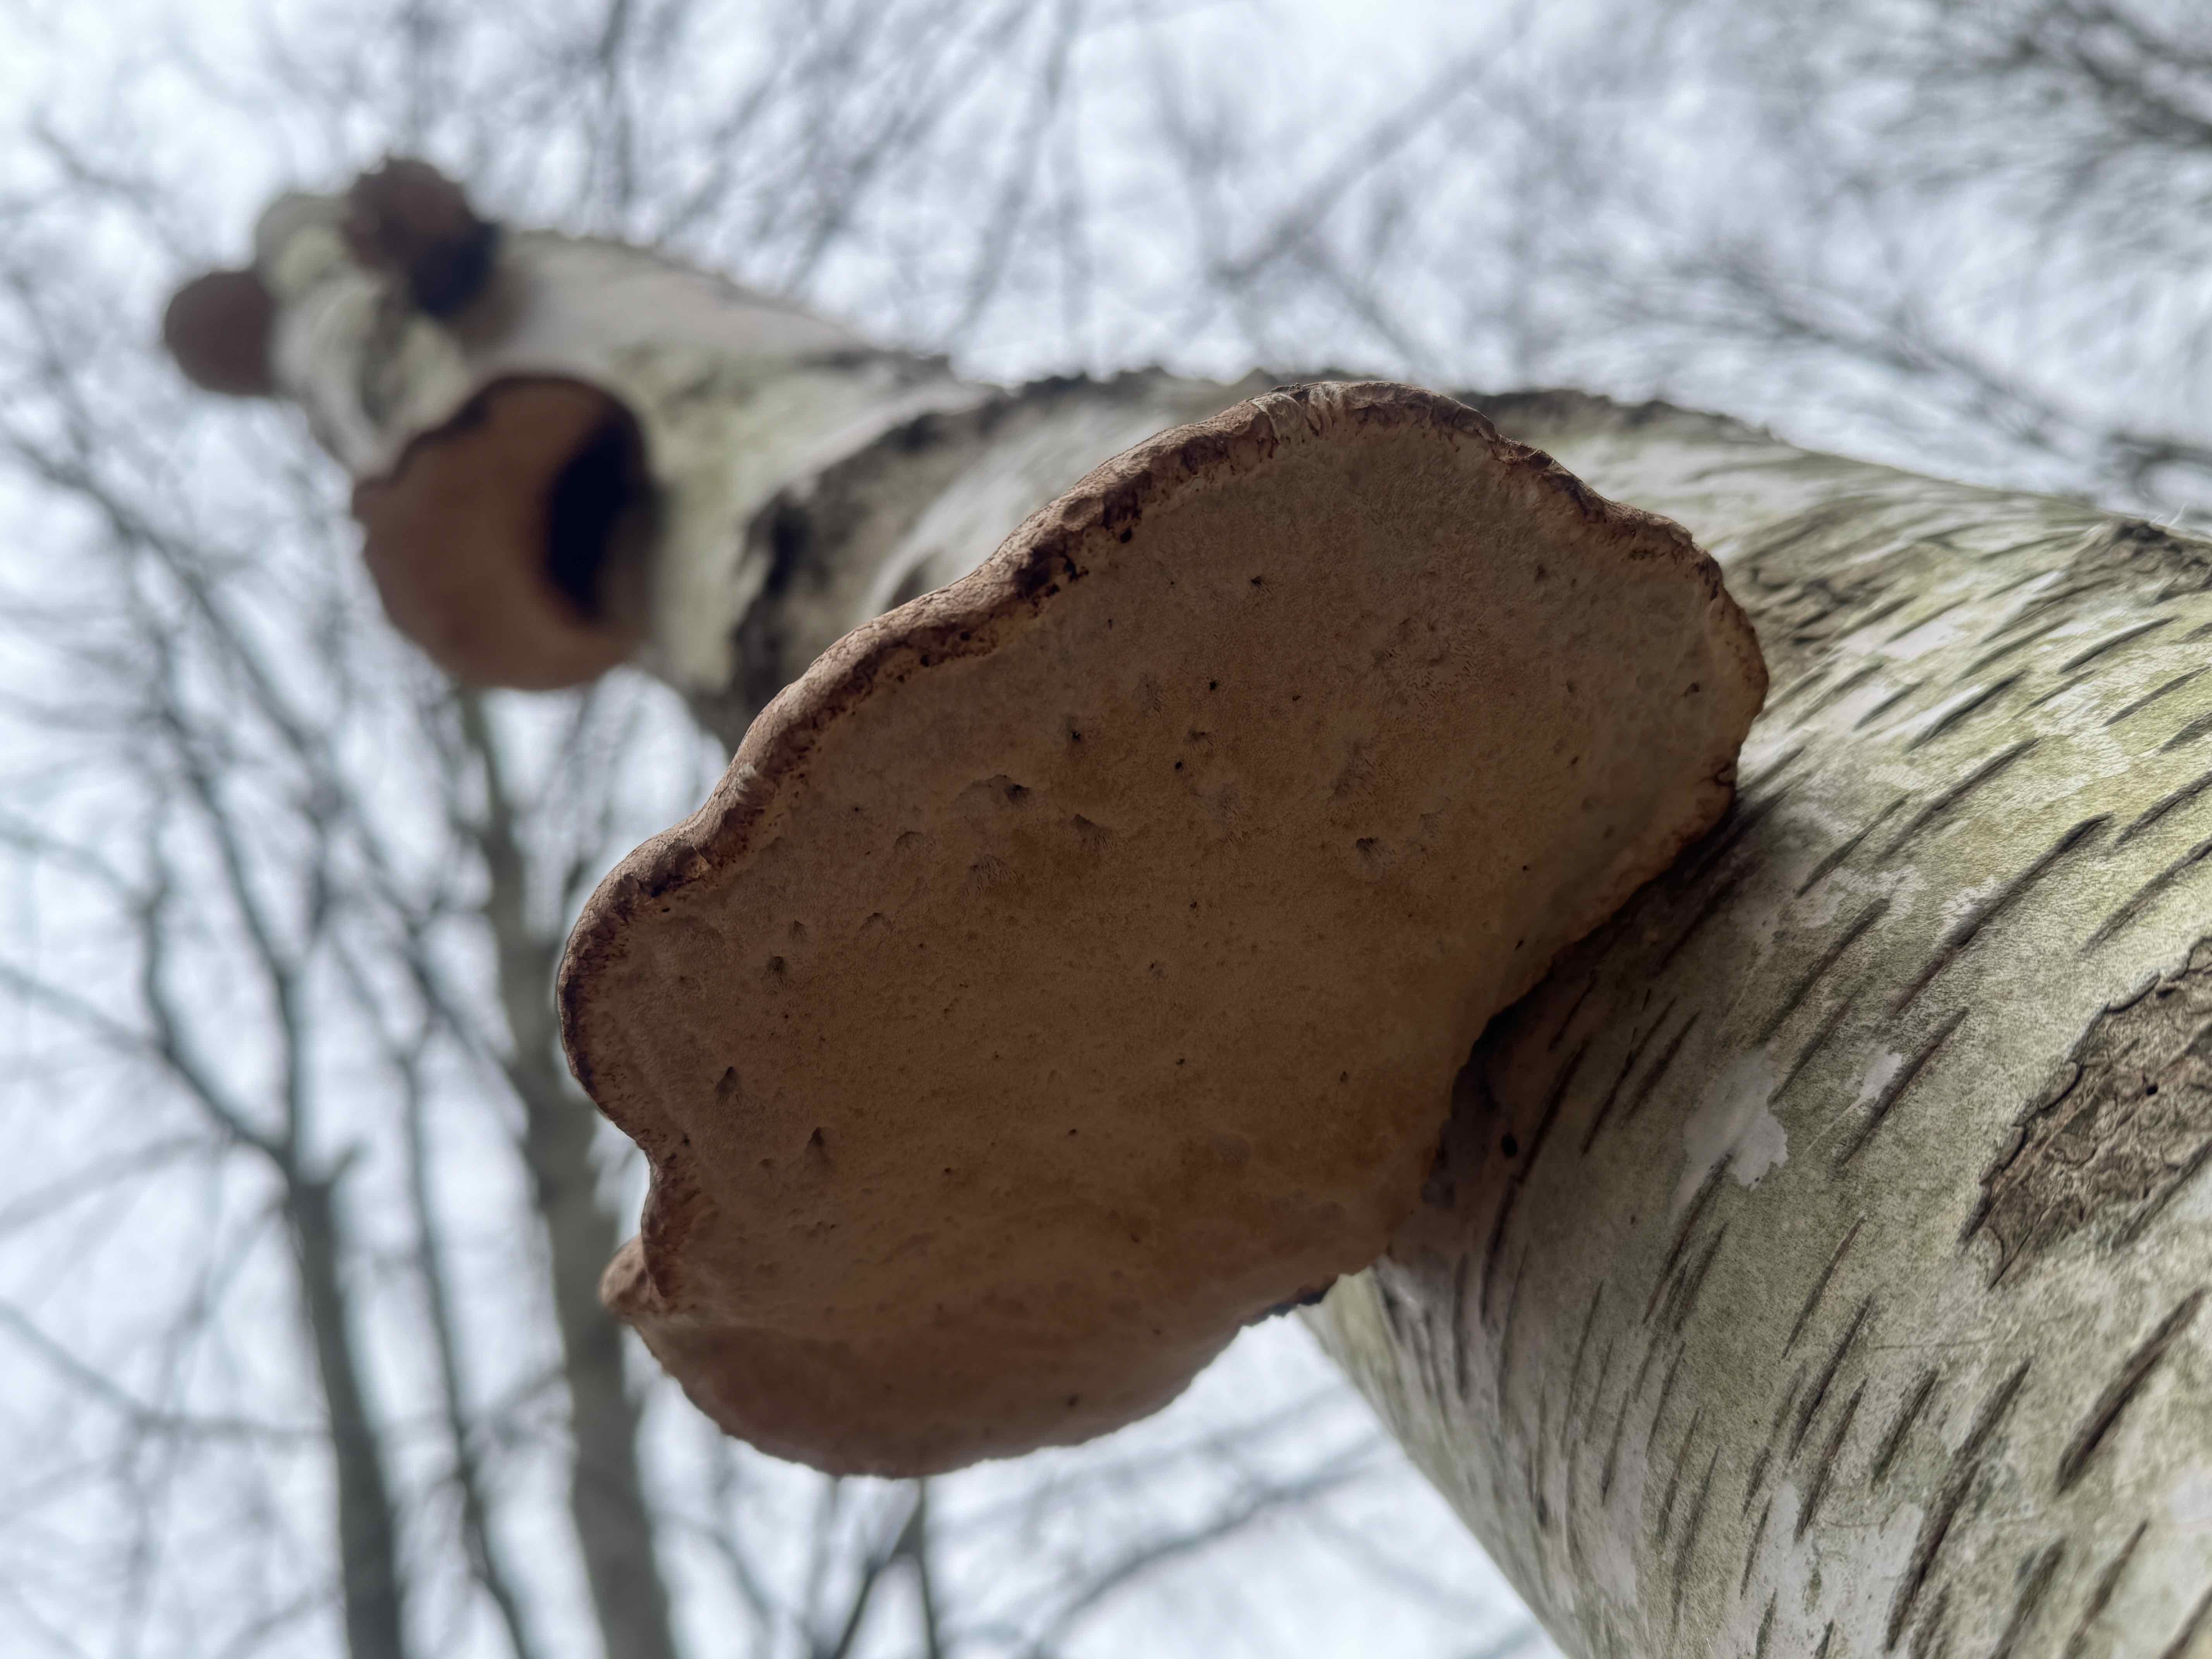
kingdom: Fungi
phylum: Basidiomycota
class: Agaricomycetes
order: Polyporales
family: Fomitopsidaceae
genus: Fomitopsis
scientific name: Fomitopsis betulina
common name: birkeporesvamp
